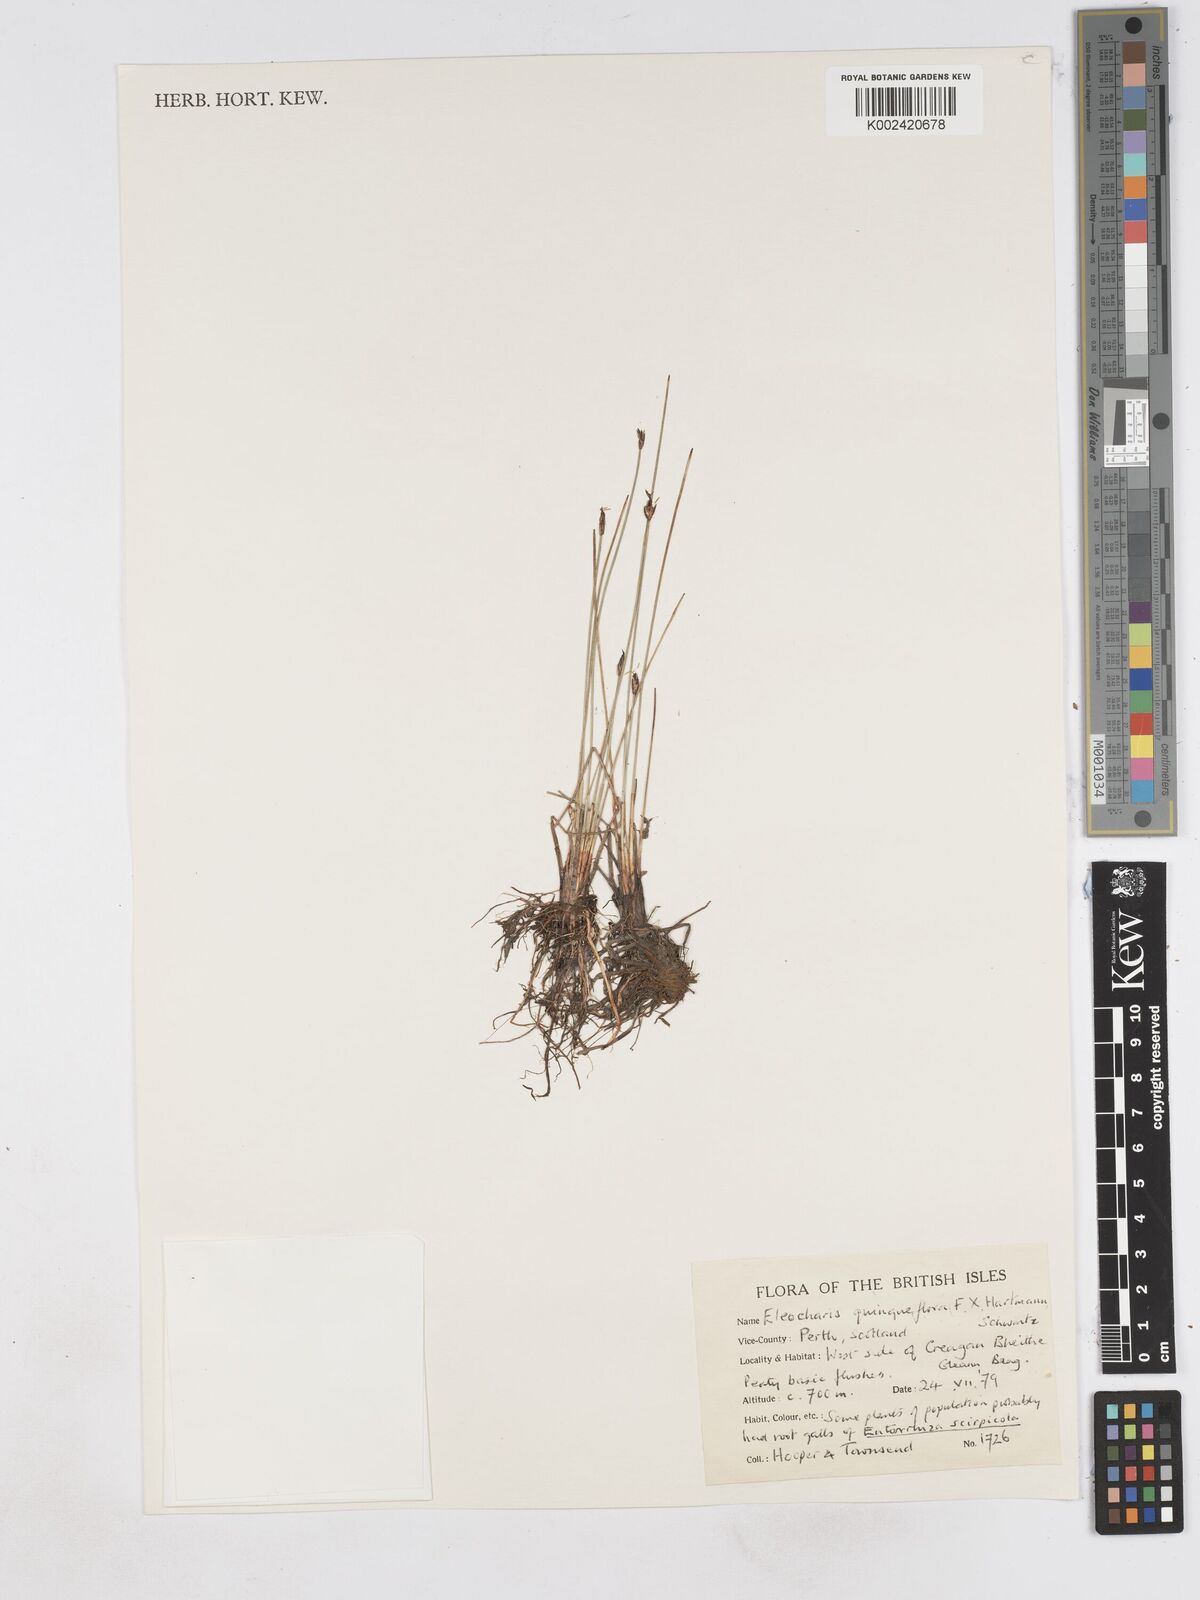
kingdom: Plantae
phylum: Tracheophyta
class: Liliopsida
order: Poales
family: Cyperaceae
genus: Eleocharis
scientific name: Eleocharis quinqueflora
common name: Few-flowered spike-rush
